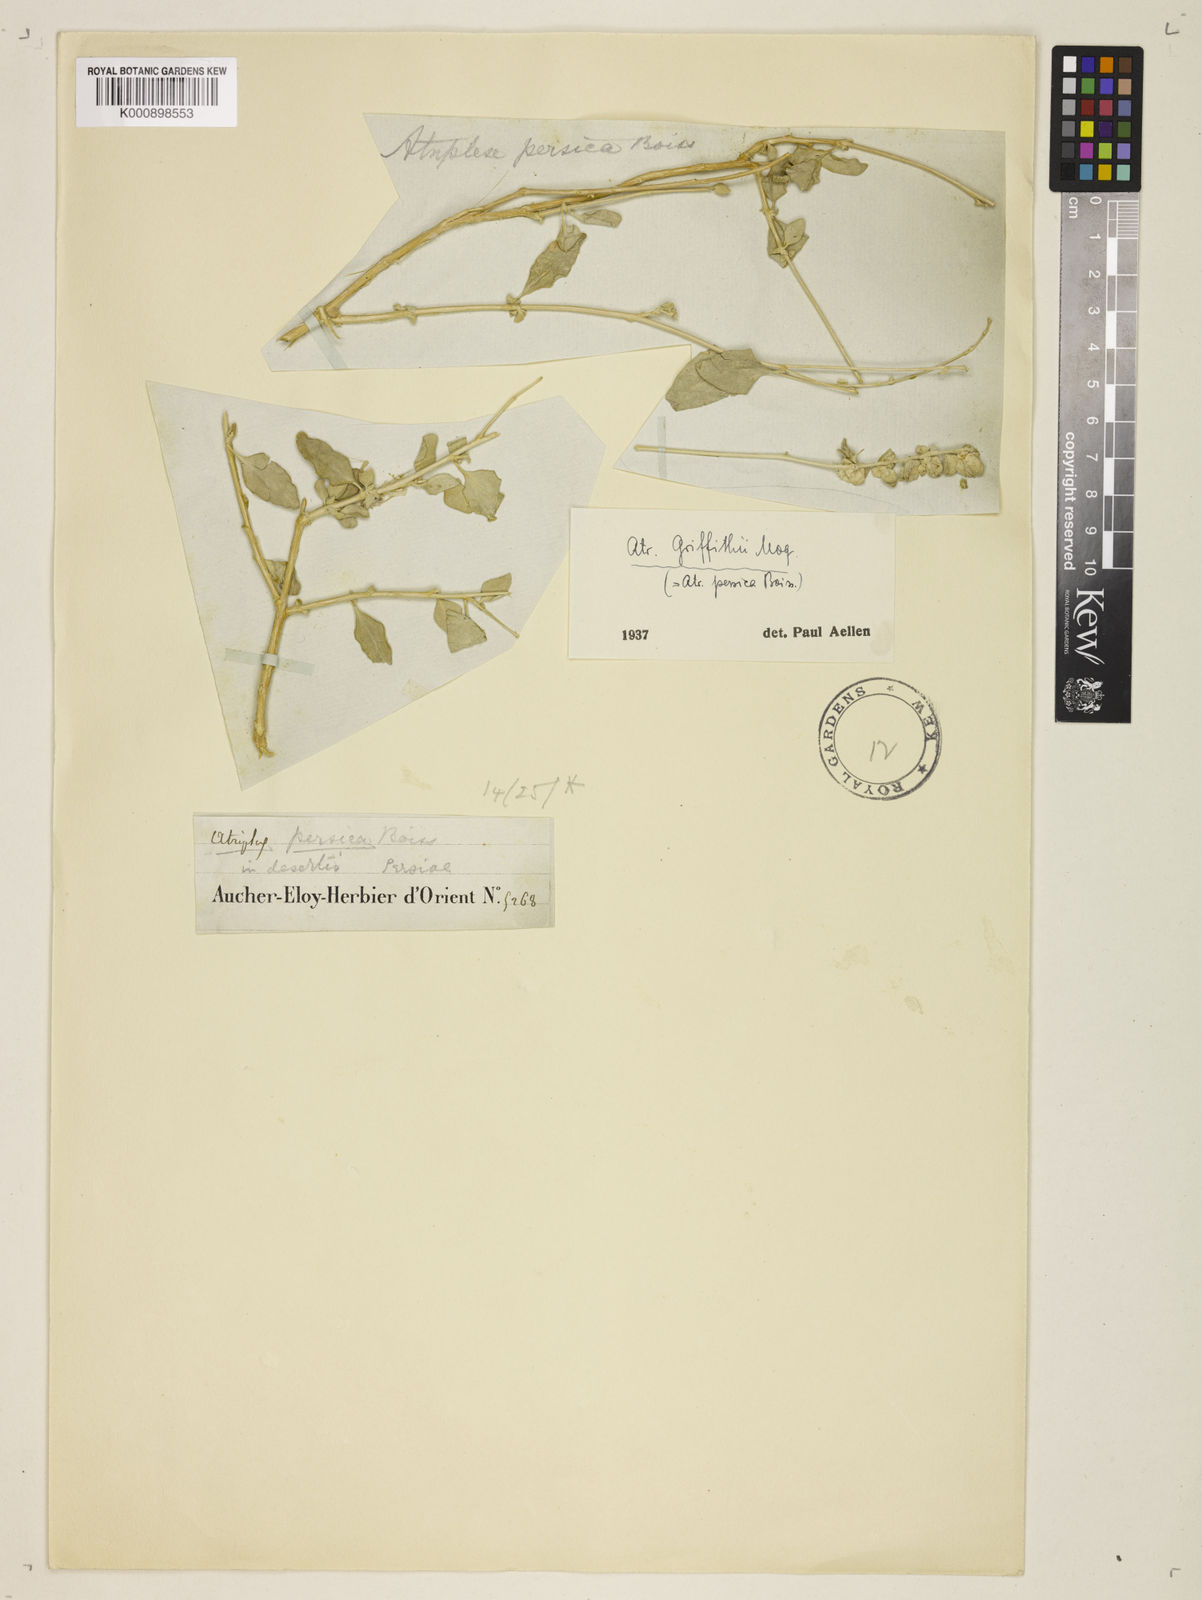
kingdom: Plantae
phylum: Tracheophyta
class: Magnoliopsida
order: Caryophyllales
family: Amaranthaceae
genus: Atriplex
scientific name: Atriplex griffithii
